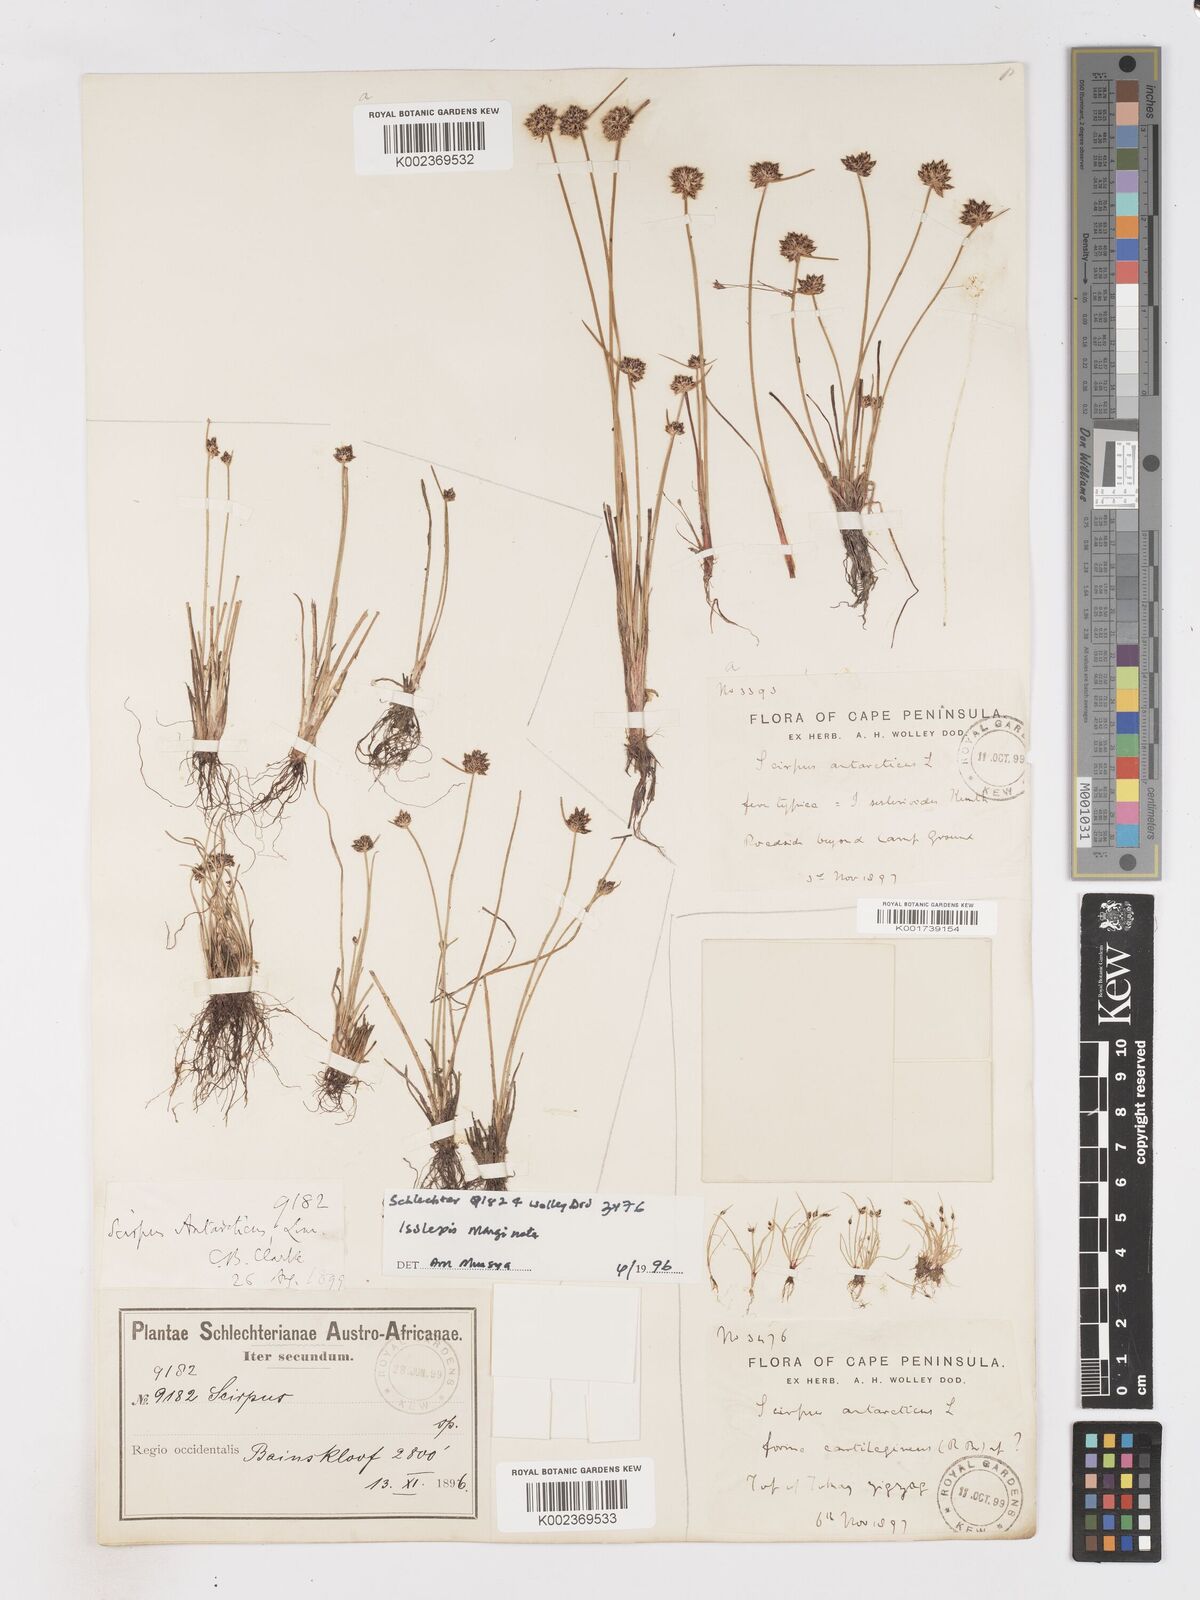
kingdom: Plantae
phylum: Tracheophyta
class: Liliopsida
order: Poales
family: Cyperaceae
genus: Isolepis
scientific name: Isolepis antarctica
